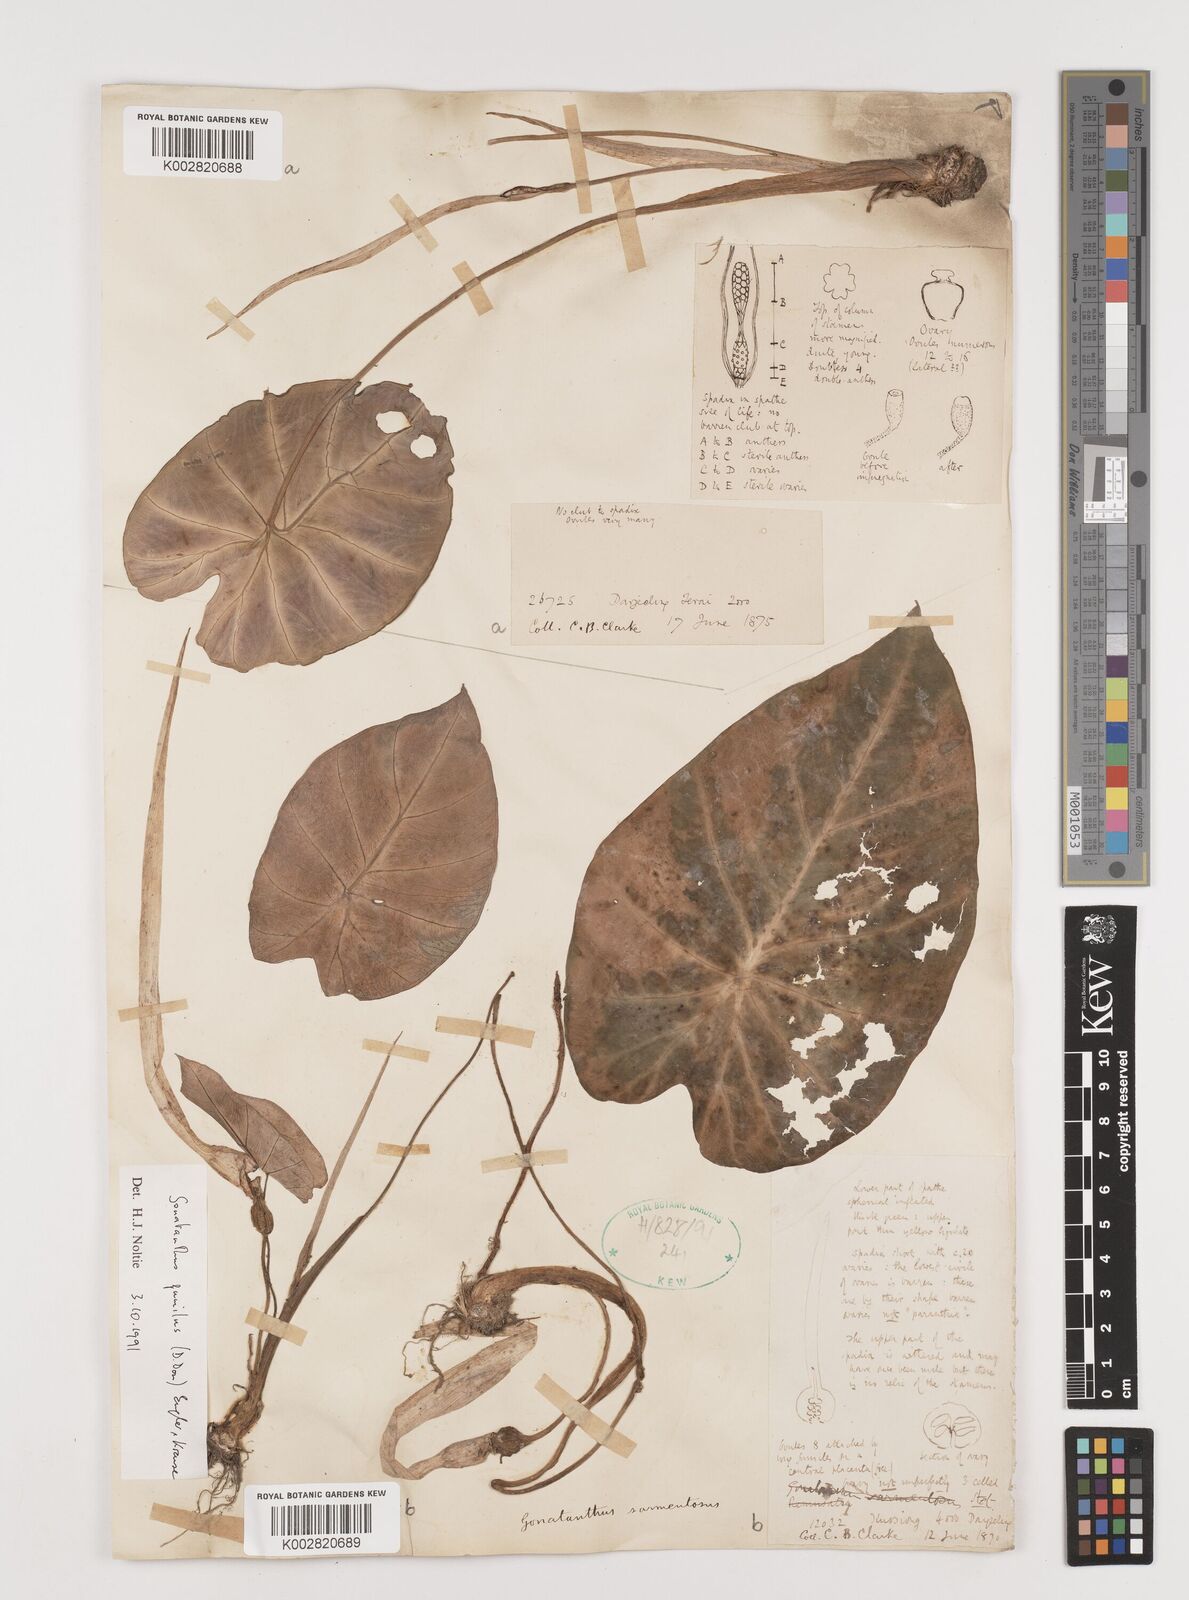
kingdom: Plantae
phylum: Tracheophyta
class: Liliopsida
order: Alismatales
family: Araceae
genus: Remusatia
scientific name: Remusatia pumila
